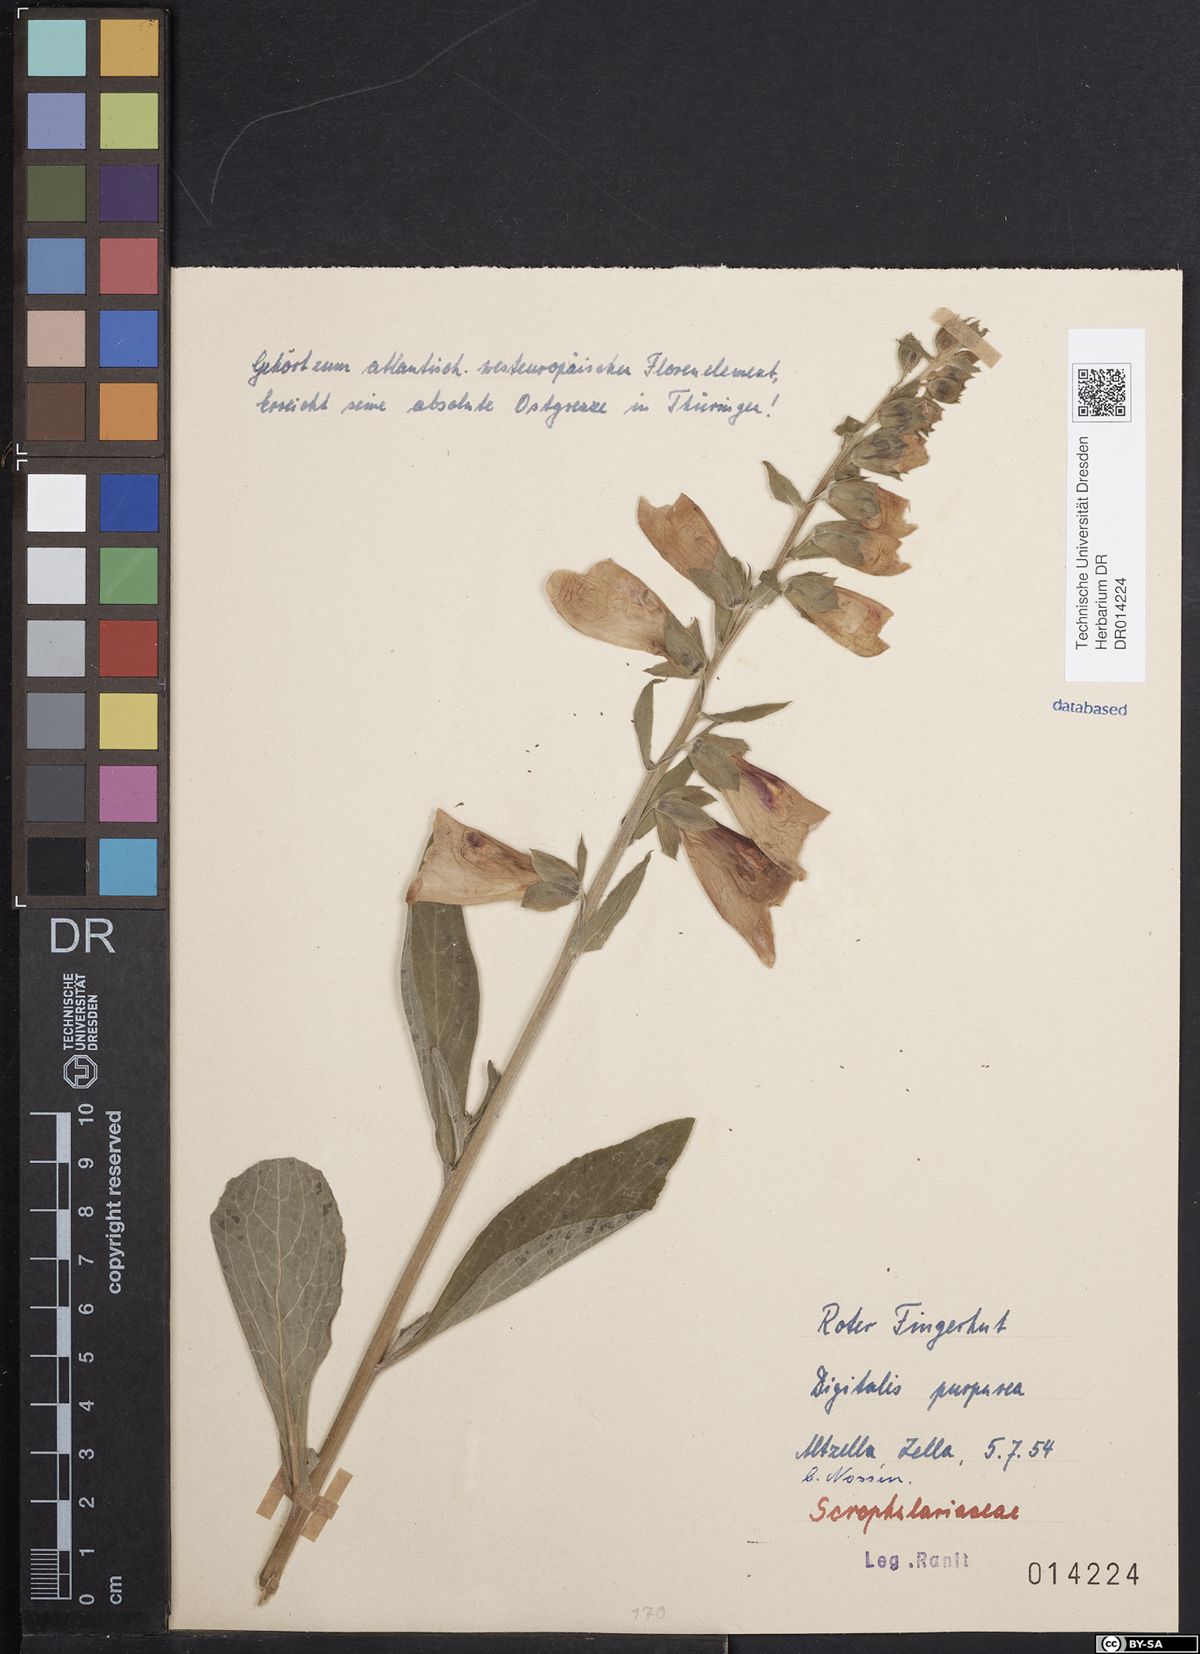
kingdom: Plantae
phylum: Tracheophyta
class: Magnoliopsida
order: Lamiales
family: Plantaginaceae
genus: Digitalis
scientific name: Digitalis purpurea
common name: Foxglove
